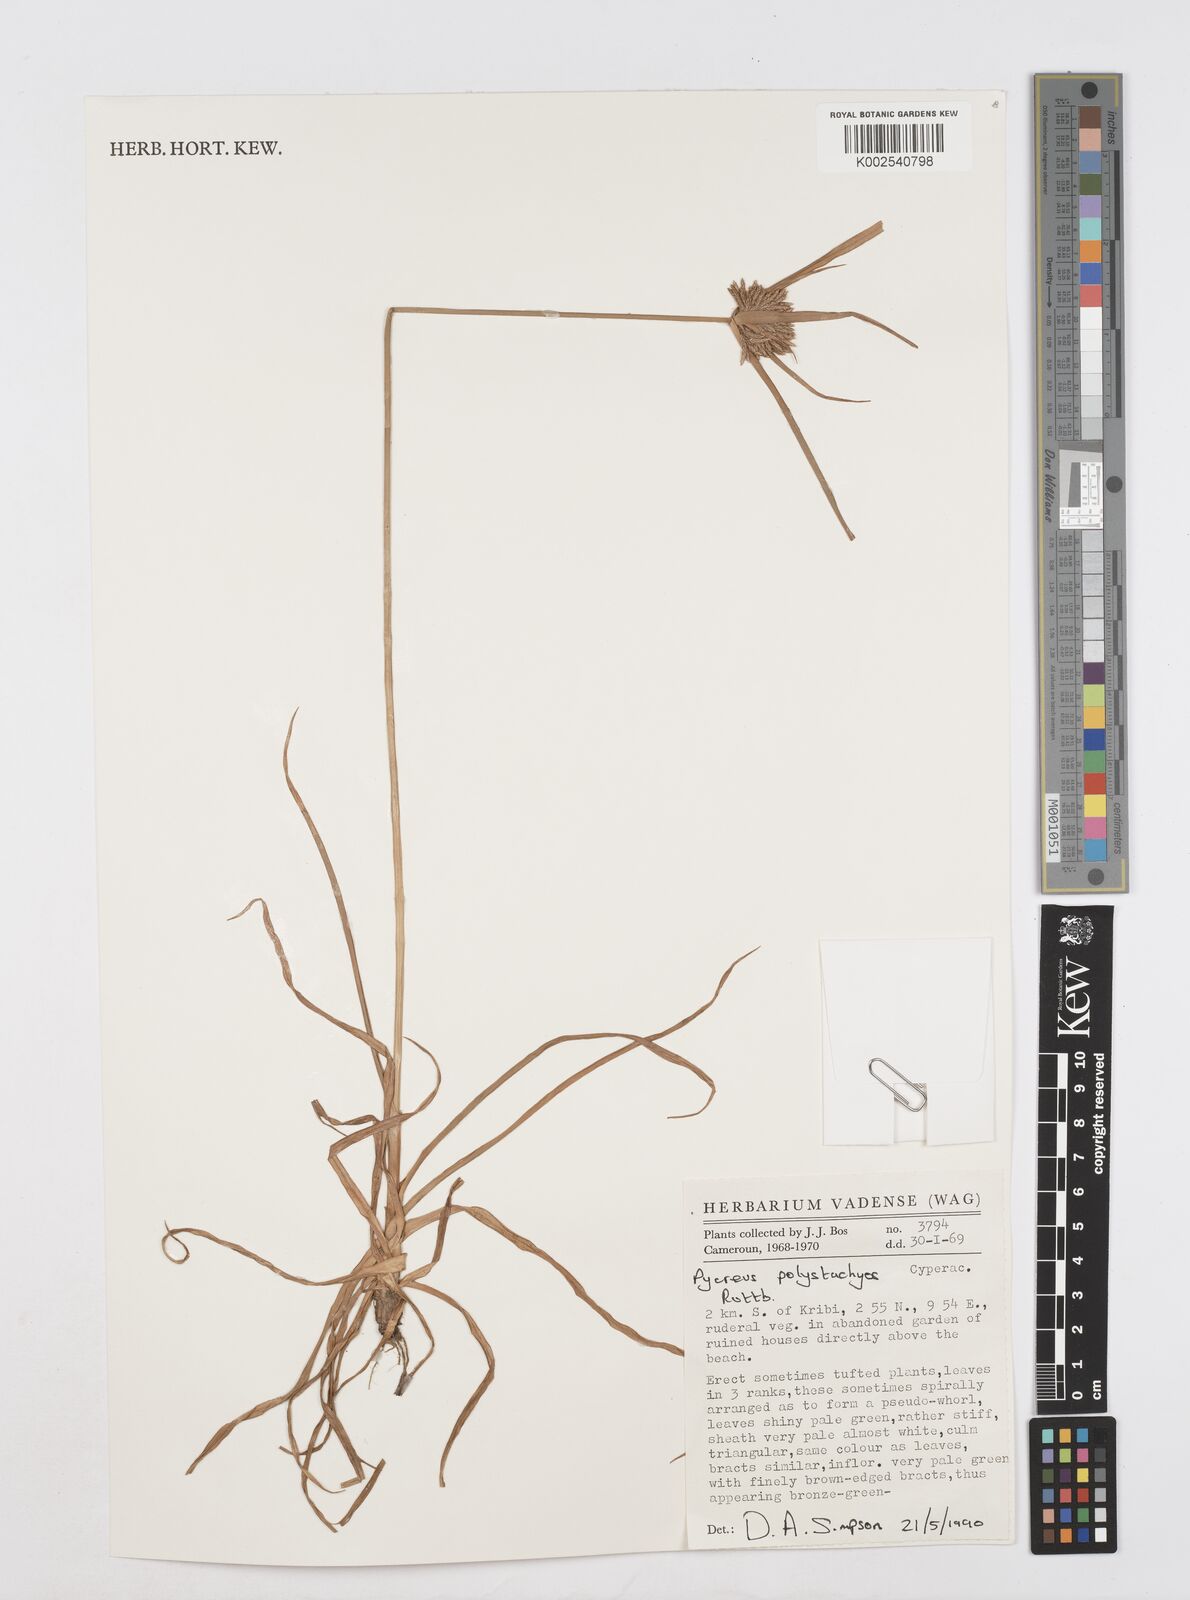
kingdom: Plantae
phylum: Tracheophyta
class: Liliopsida
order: Poales
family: Cyperaceae
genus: Cyperus
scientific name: Cyperus polystachyos
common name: Bunchy flat sedge
